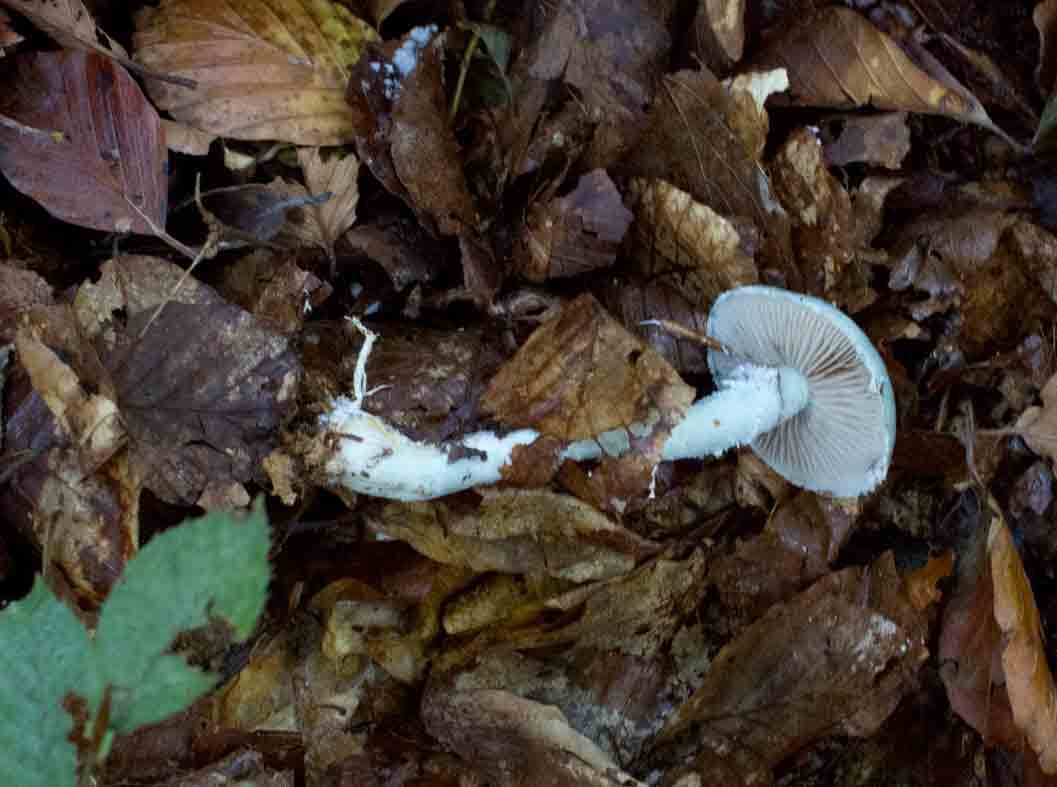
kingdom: Fungi
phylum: Basidiomycota
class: Agaricomycetes
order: Agaricales
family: Strophariaceae
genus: Stropharia
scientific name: Stropharia cyanea
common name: blågrøn bredblad
